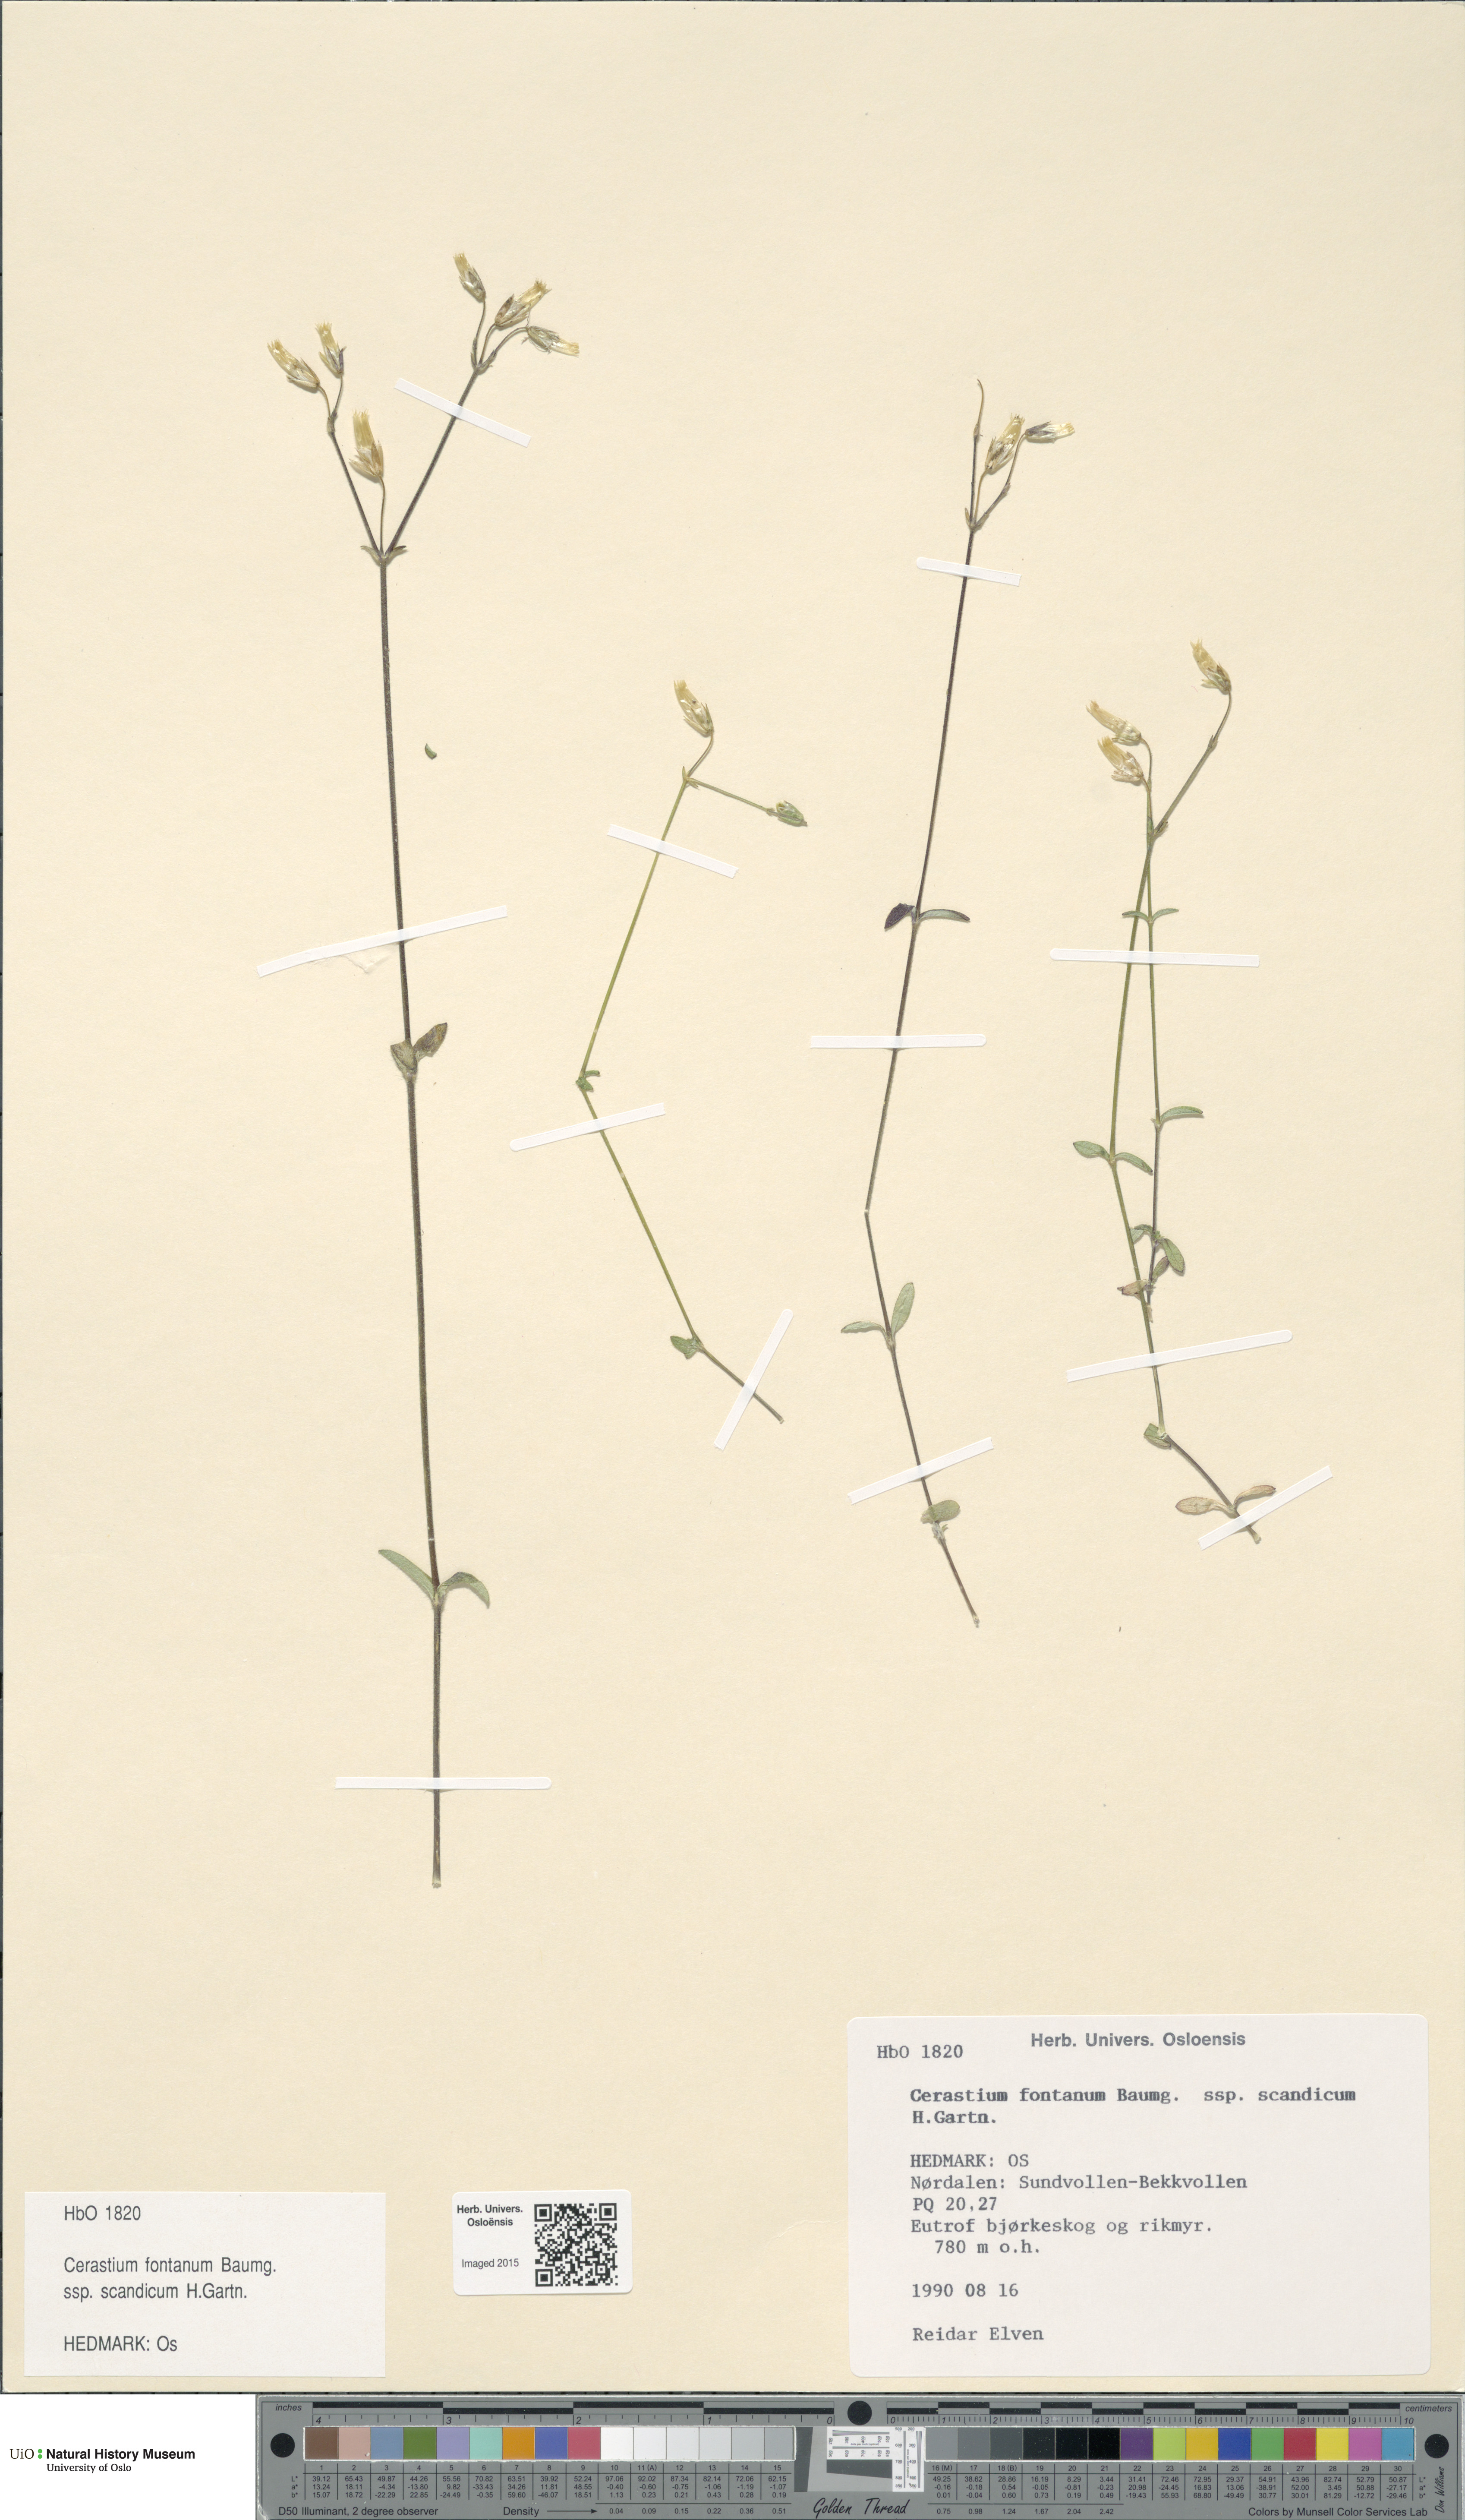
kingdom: Plantae
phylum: Tracheophyta
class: Magnoliopsida
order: Caryophyllales
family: Caryophyllaceae
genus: Cerastium
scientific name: Cerastium fontanum
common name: Common mouse-ear
